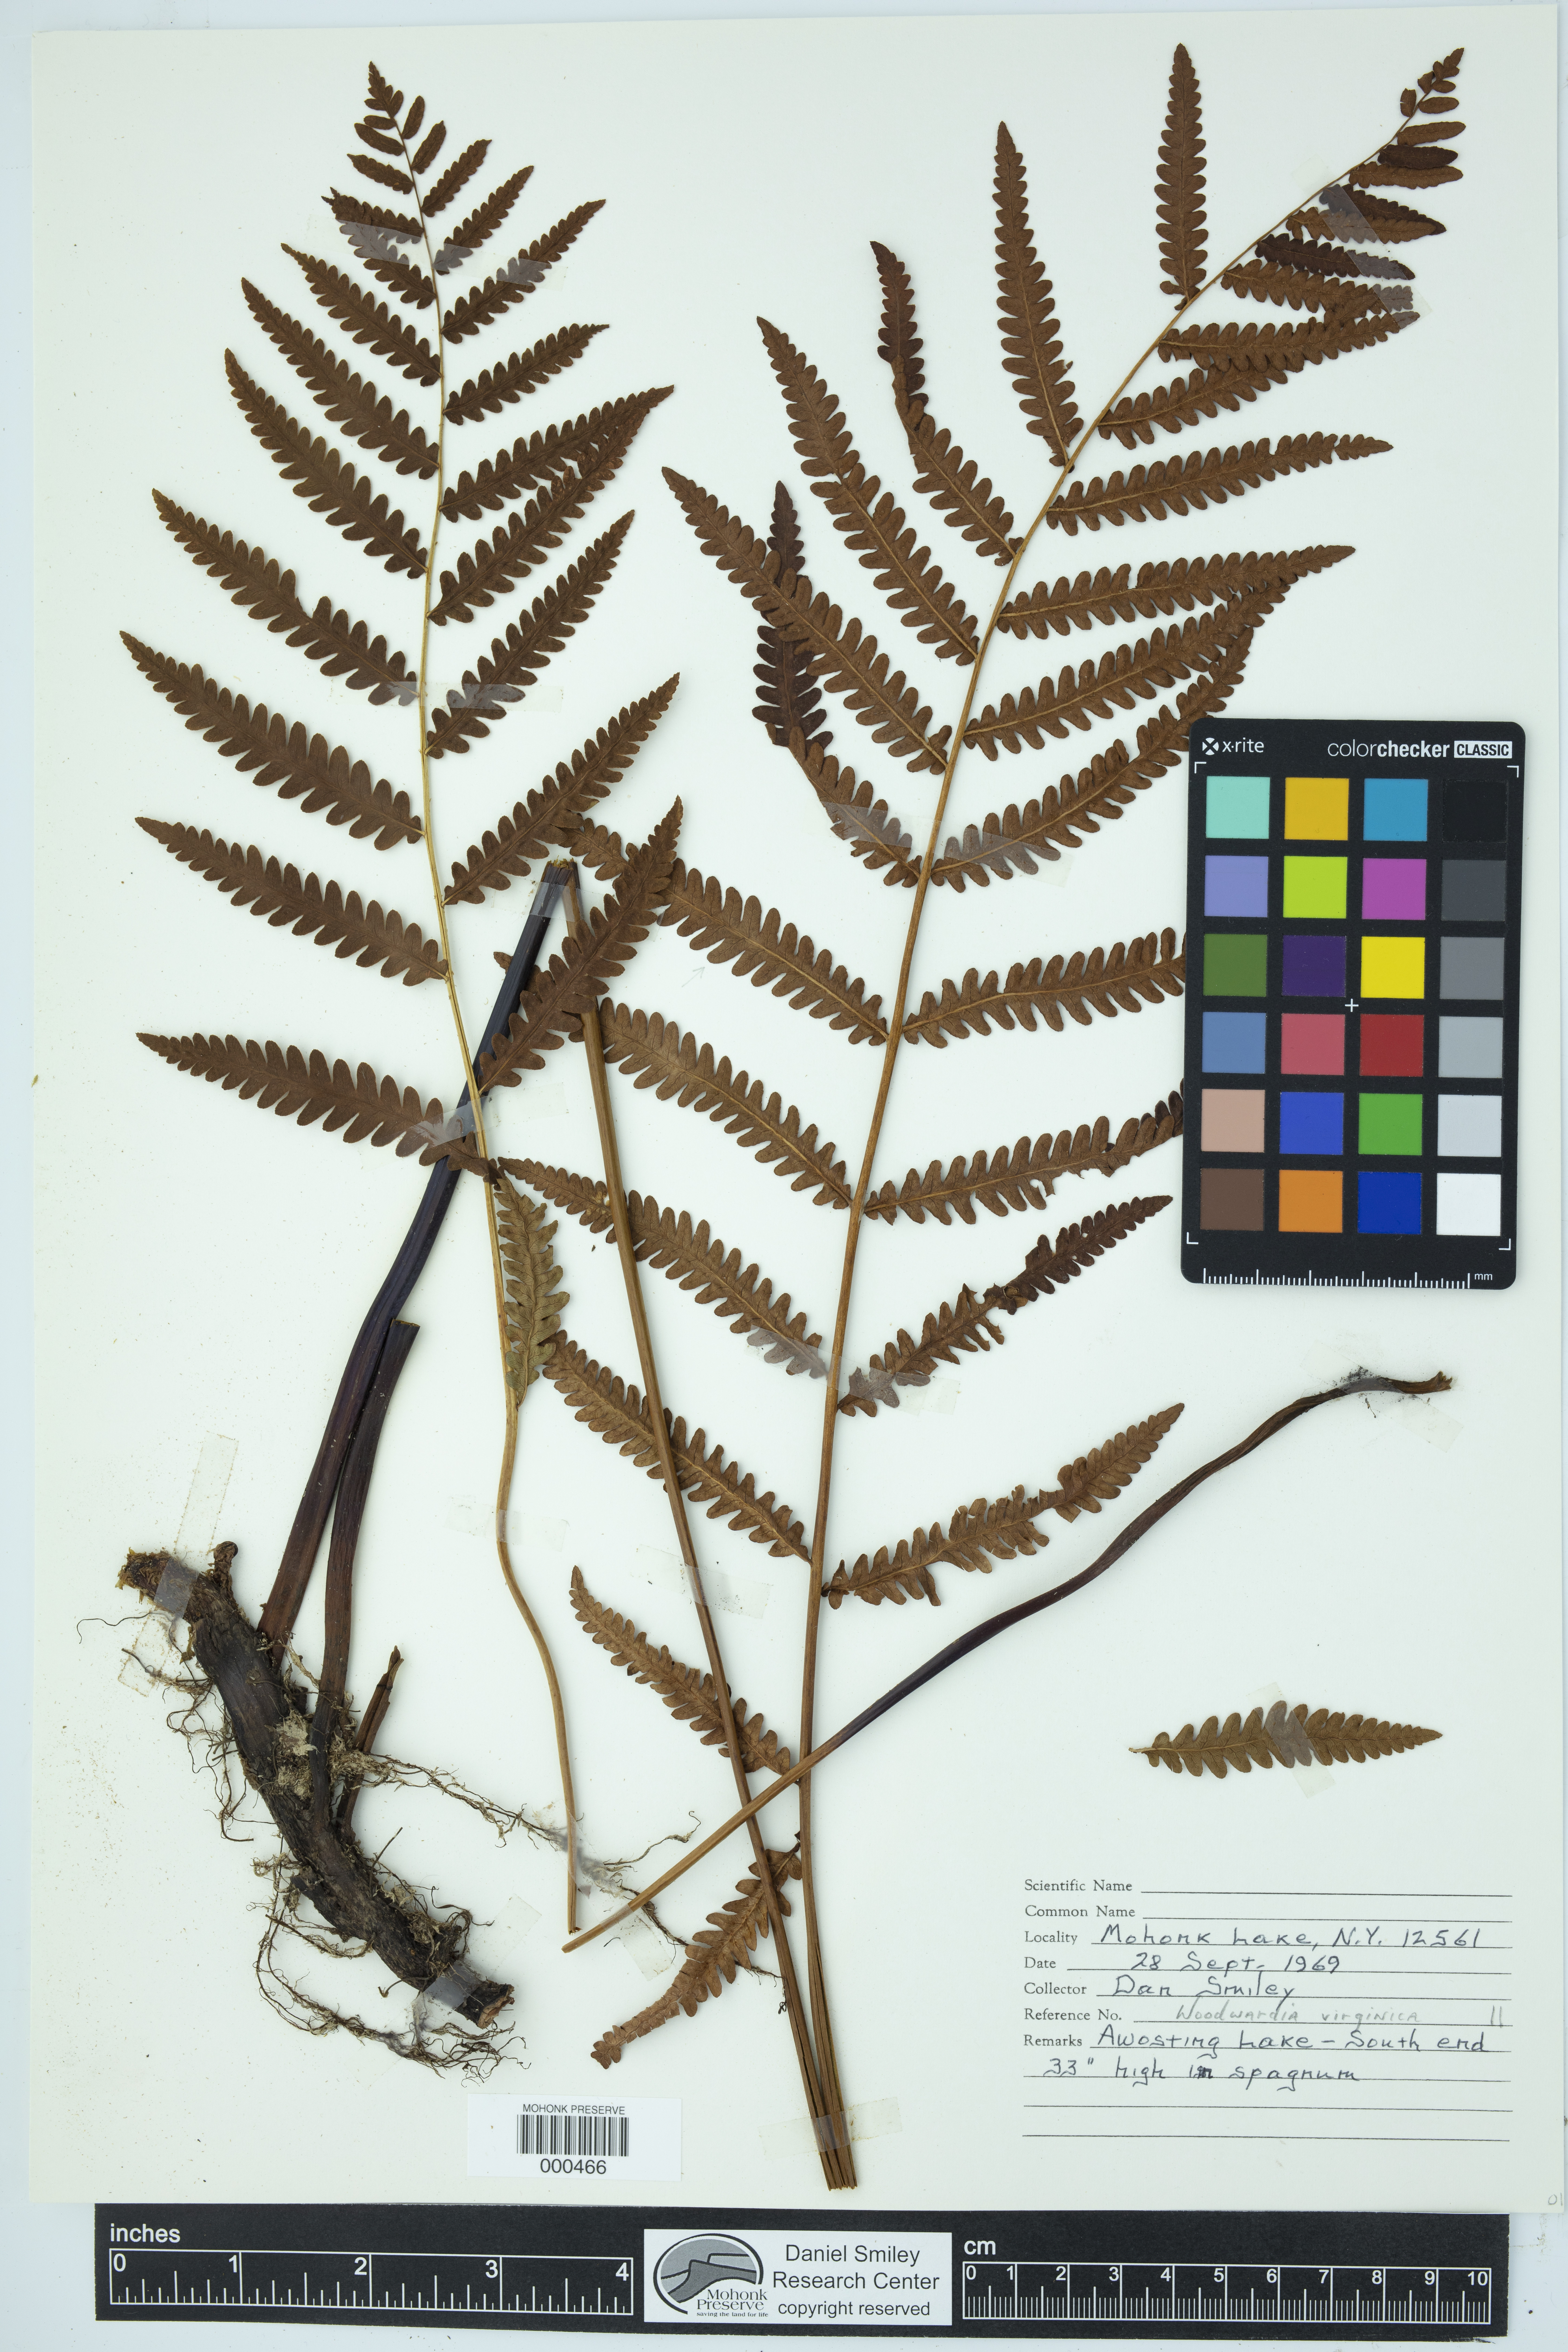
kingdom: Plantae
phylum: Tracheophyta
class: Polypodiopsida
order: Polypodiales
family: Blechnaceae
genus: Anchistea
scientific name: Anchistea virginica
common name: Virginia chain fern
